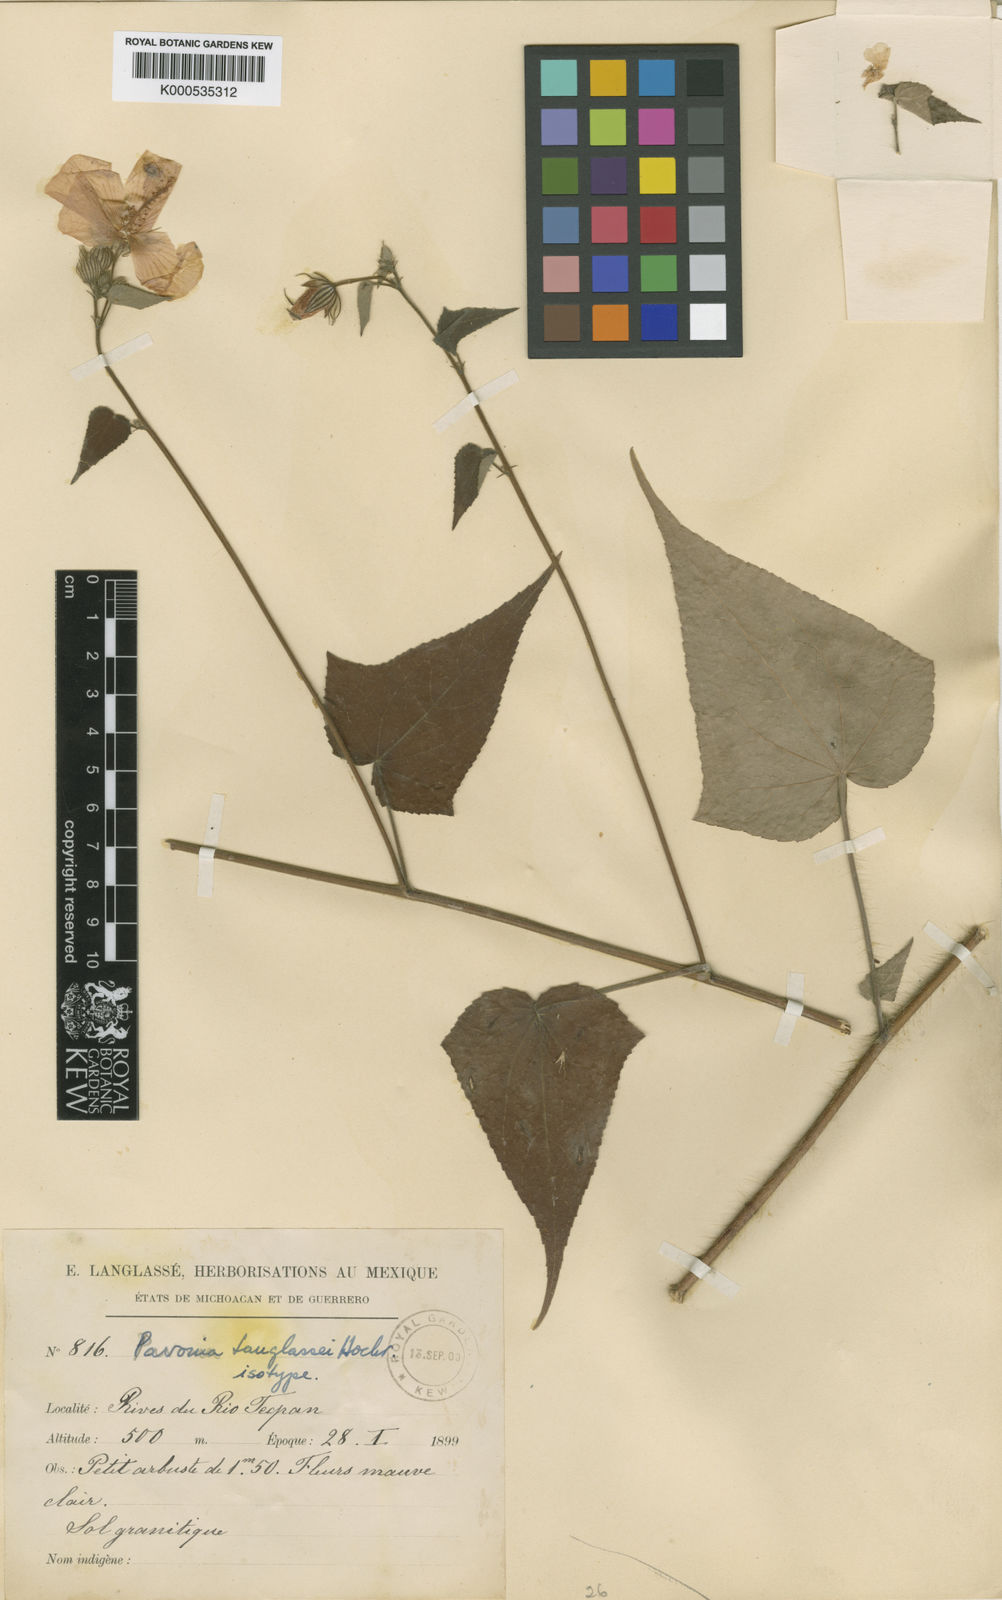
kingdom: Plantae
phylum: Tracheophyta
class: Magnoliopsida
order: Malvales
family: Malvaceae
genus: Pavonia
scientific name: Pavonia setifer
